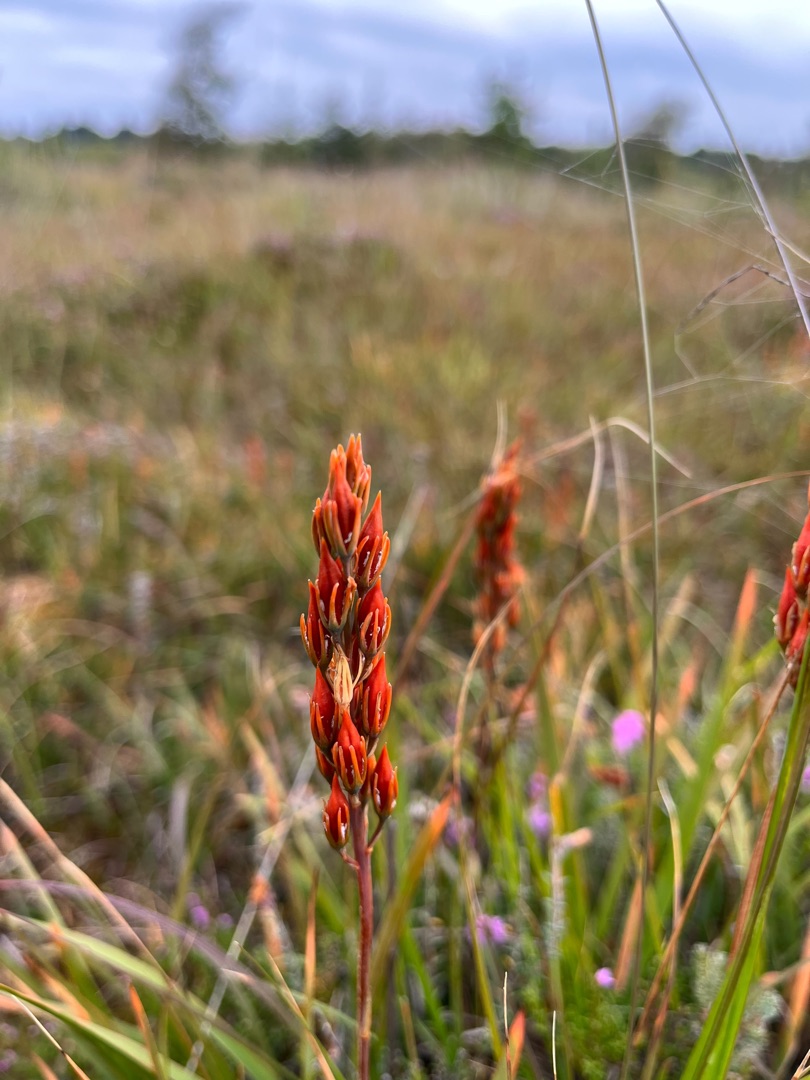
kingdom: Plantae
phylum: Tracheophyta
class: Liliopsida
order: Dioscoreales
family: Nartheciaceae
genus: Narthecium
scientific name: Narthecium ossifragum
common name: Benbræk
